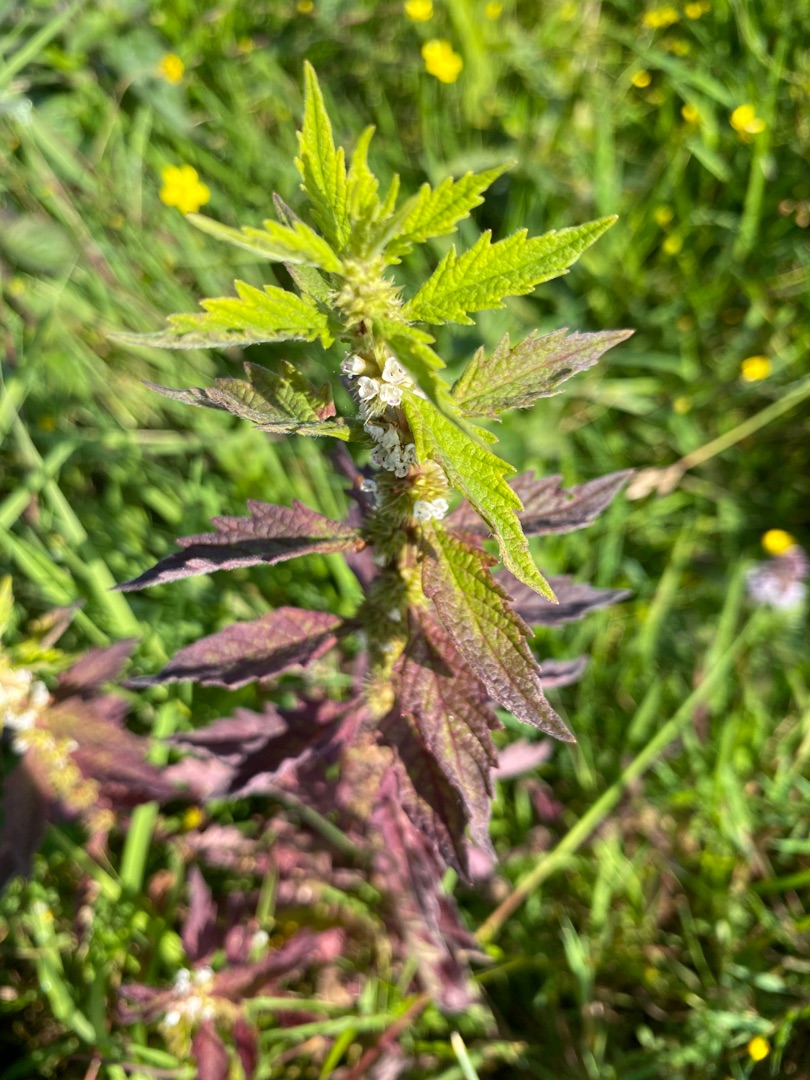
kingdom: Plantae
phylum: Tracheophyta
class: Magnoliopsida
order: Lamiales
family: Lamiaceae
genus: Lycopus
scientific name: Lycopus europaeus
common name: Sværtevæld
